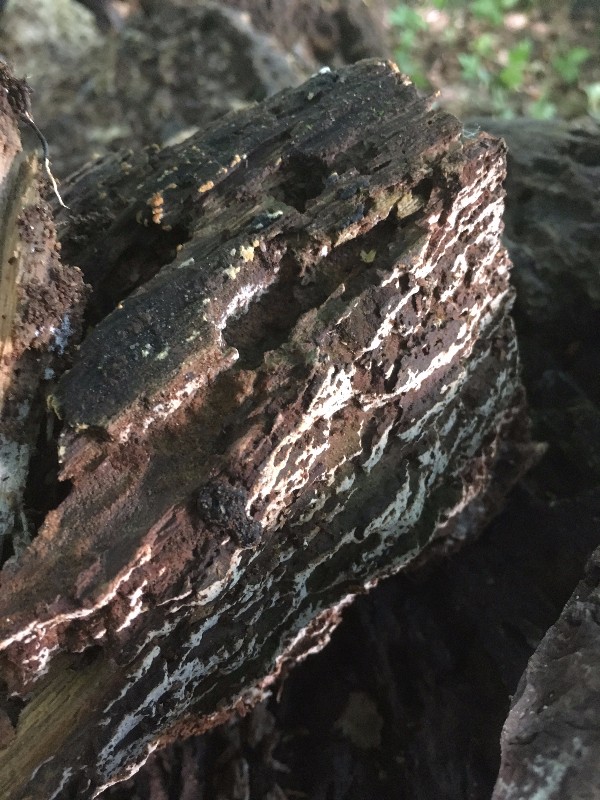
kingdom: Fungi
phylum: Basidiomycota
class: Agaricomycetes
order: Polyporales
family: Hyphodermataceae
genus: Hyphoderma
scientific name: Hyphoderma setigerum
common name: håret kalkskind
